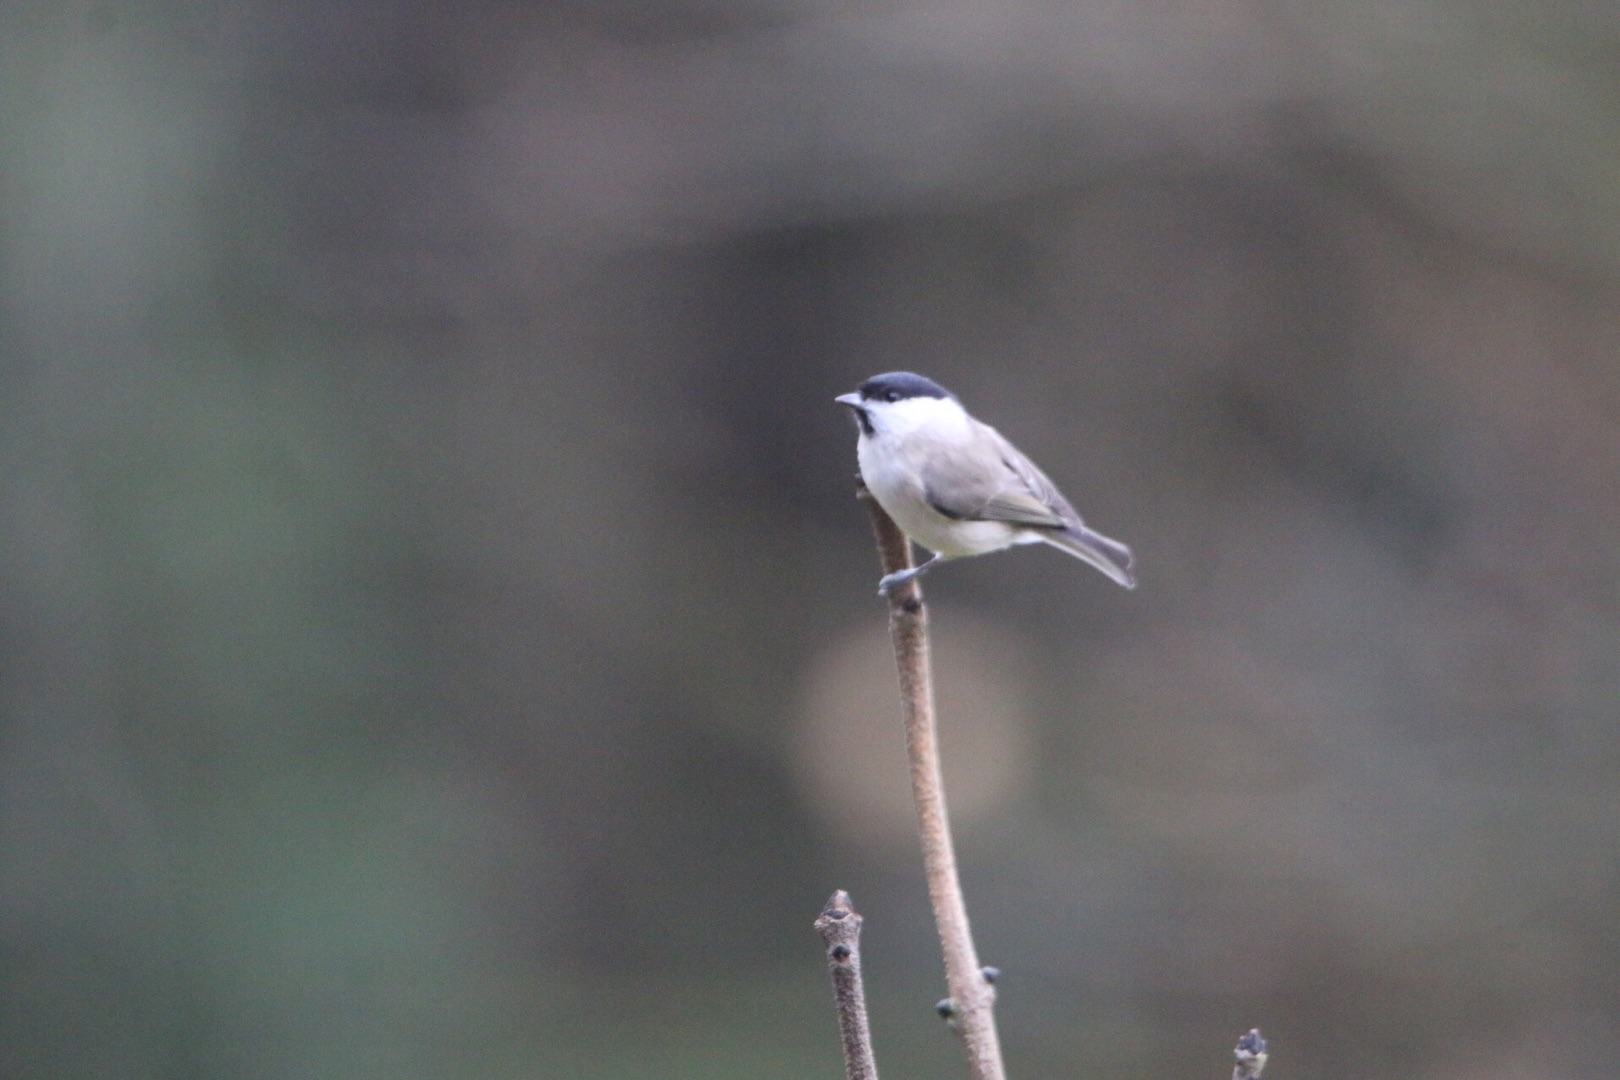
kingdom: Animalia
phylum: Chordata
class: Aves
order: Passeriformes
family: Paridae
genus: Poecile
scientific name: Poecile palustris
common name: Sumpmejse
